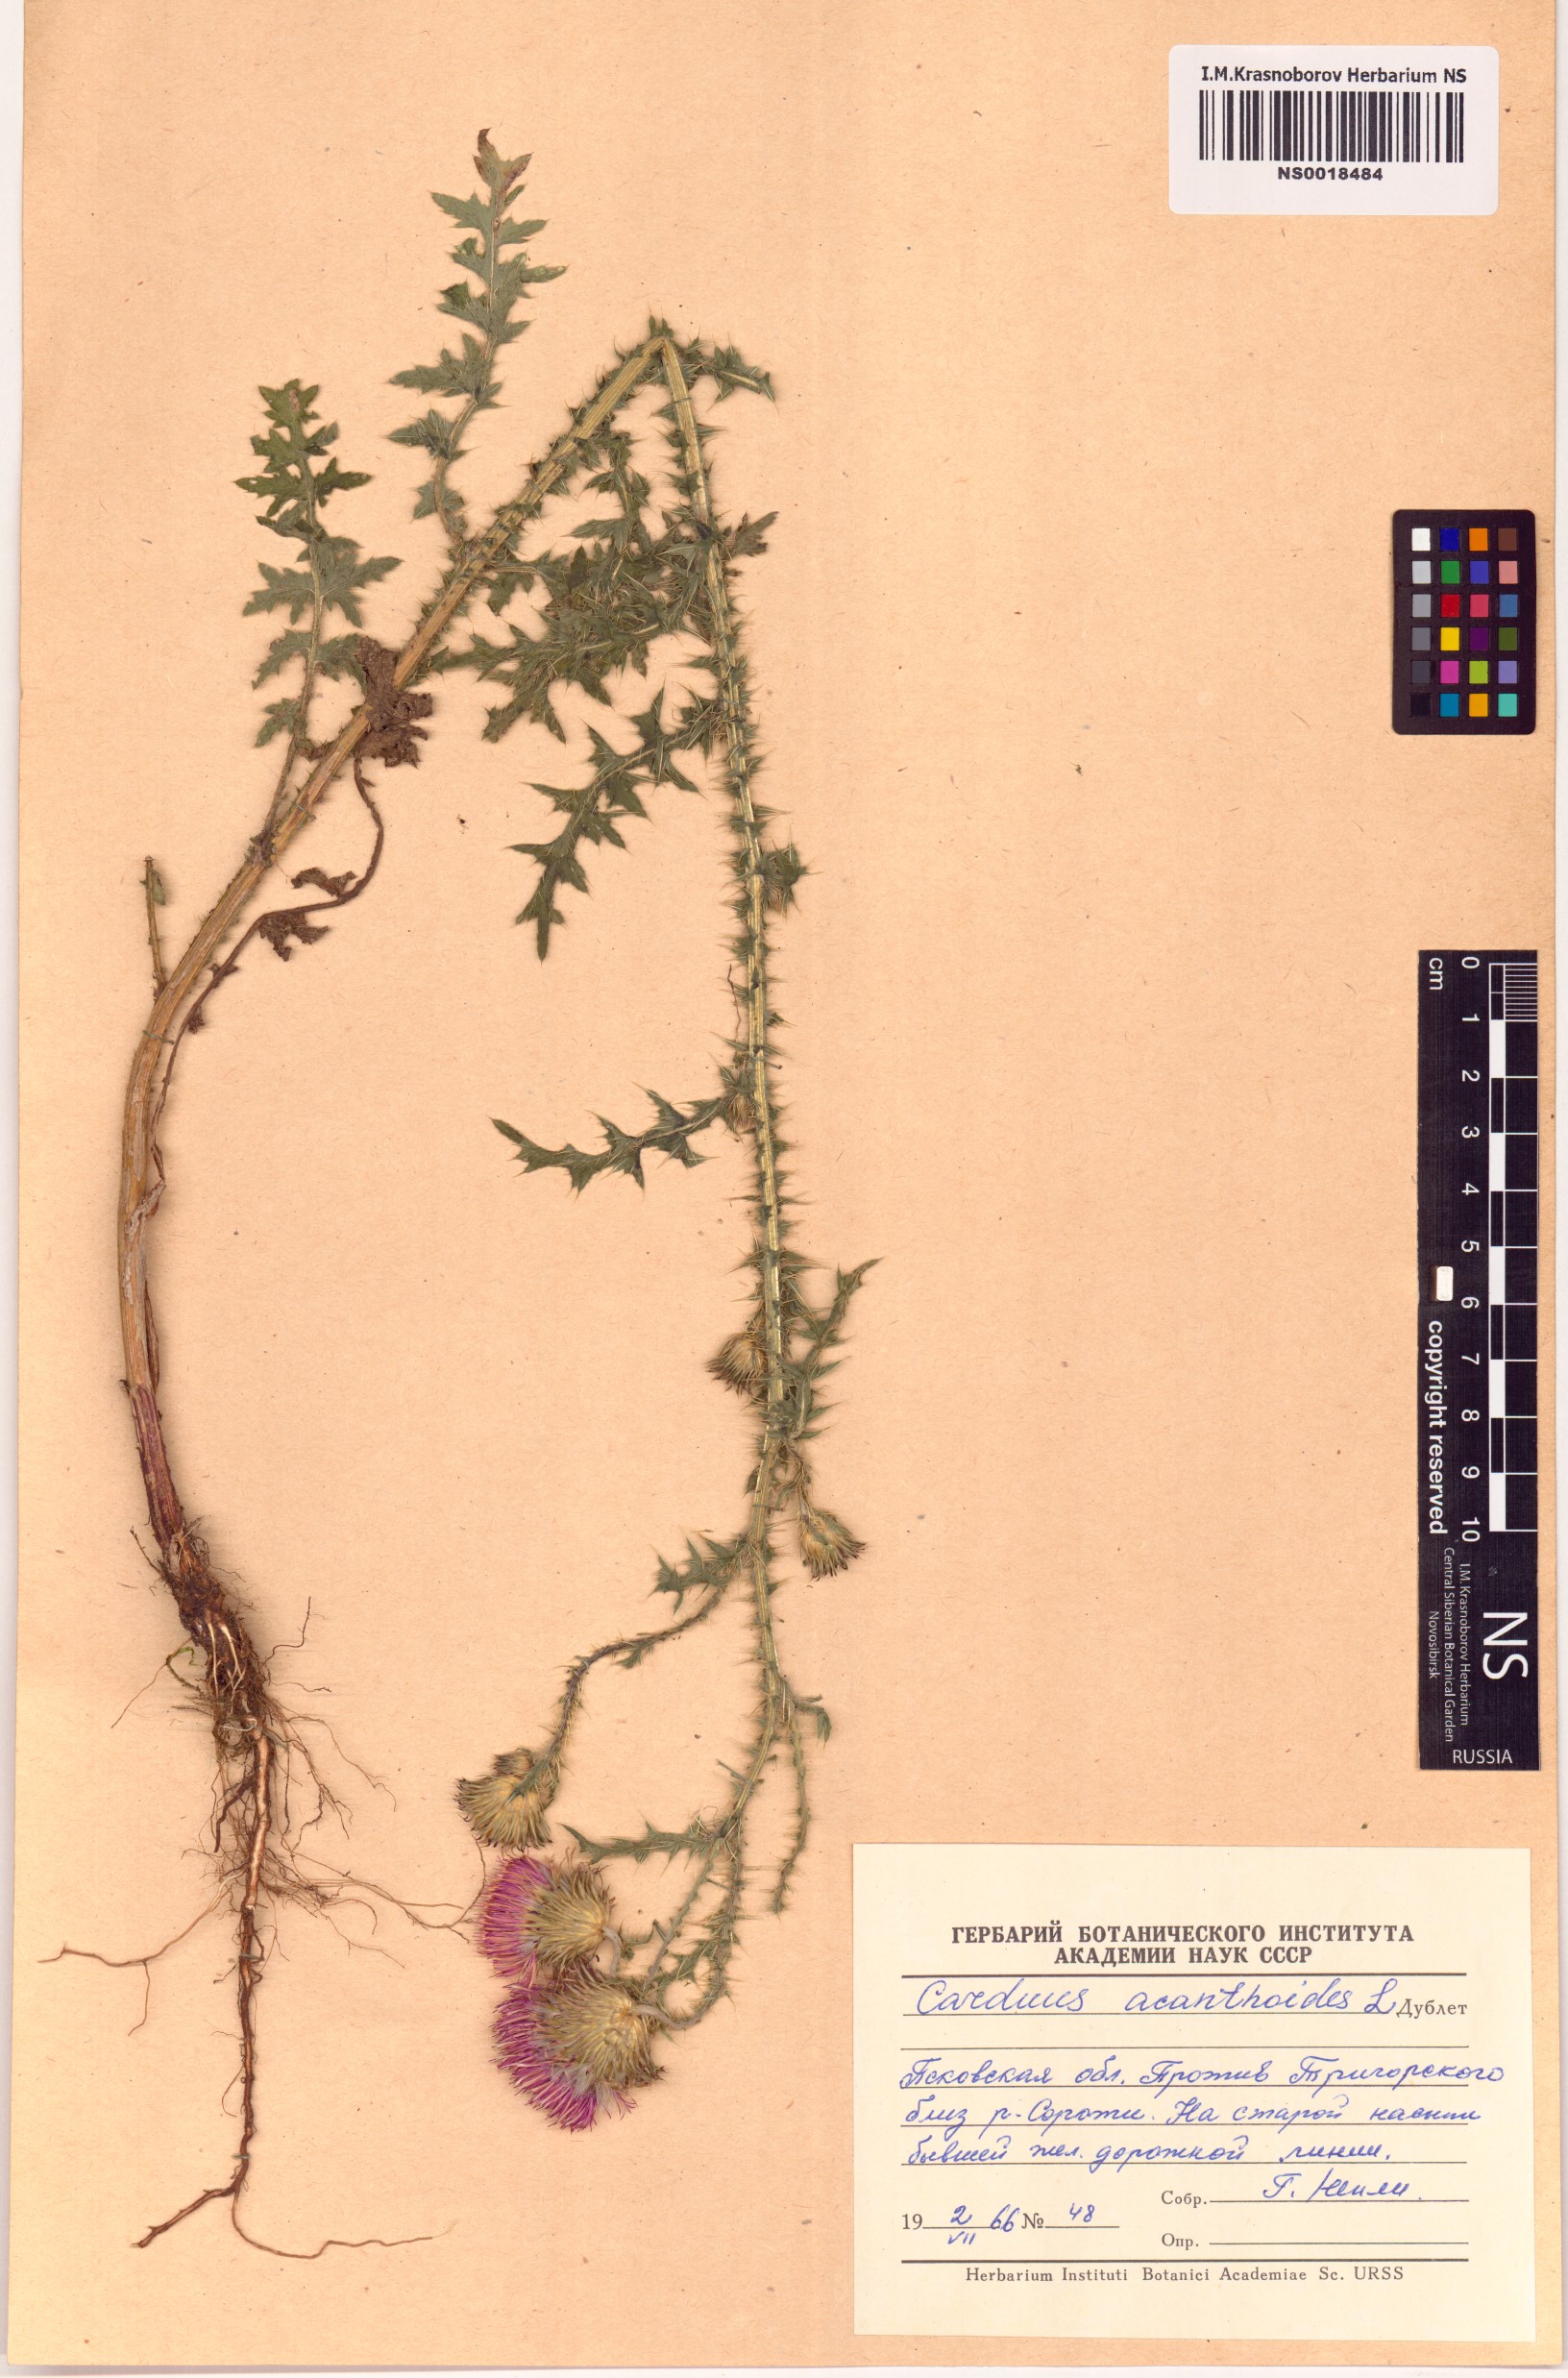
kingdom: Plantae
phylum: Tracheophyta
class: Magnoliopsida
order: Asterales
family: Asteraceae
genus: Carduus
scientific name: Carduus acanthoides
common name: Plumeless thistle
